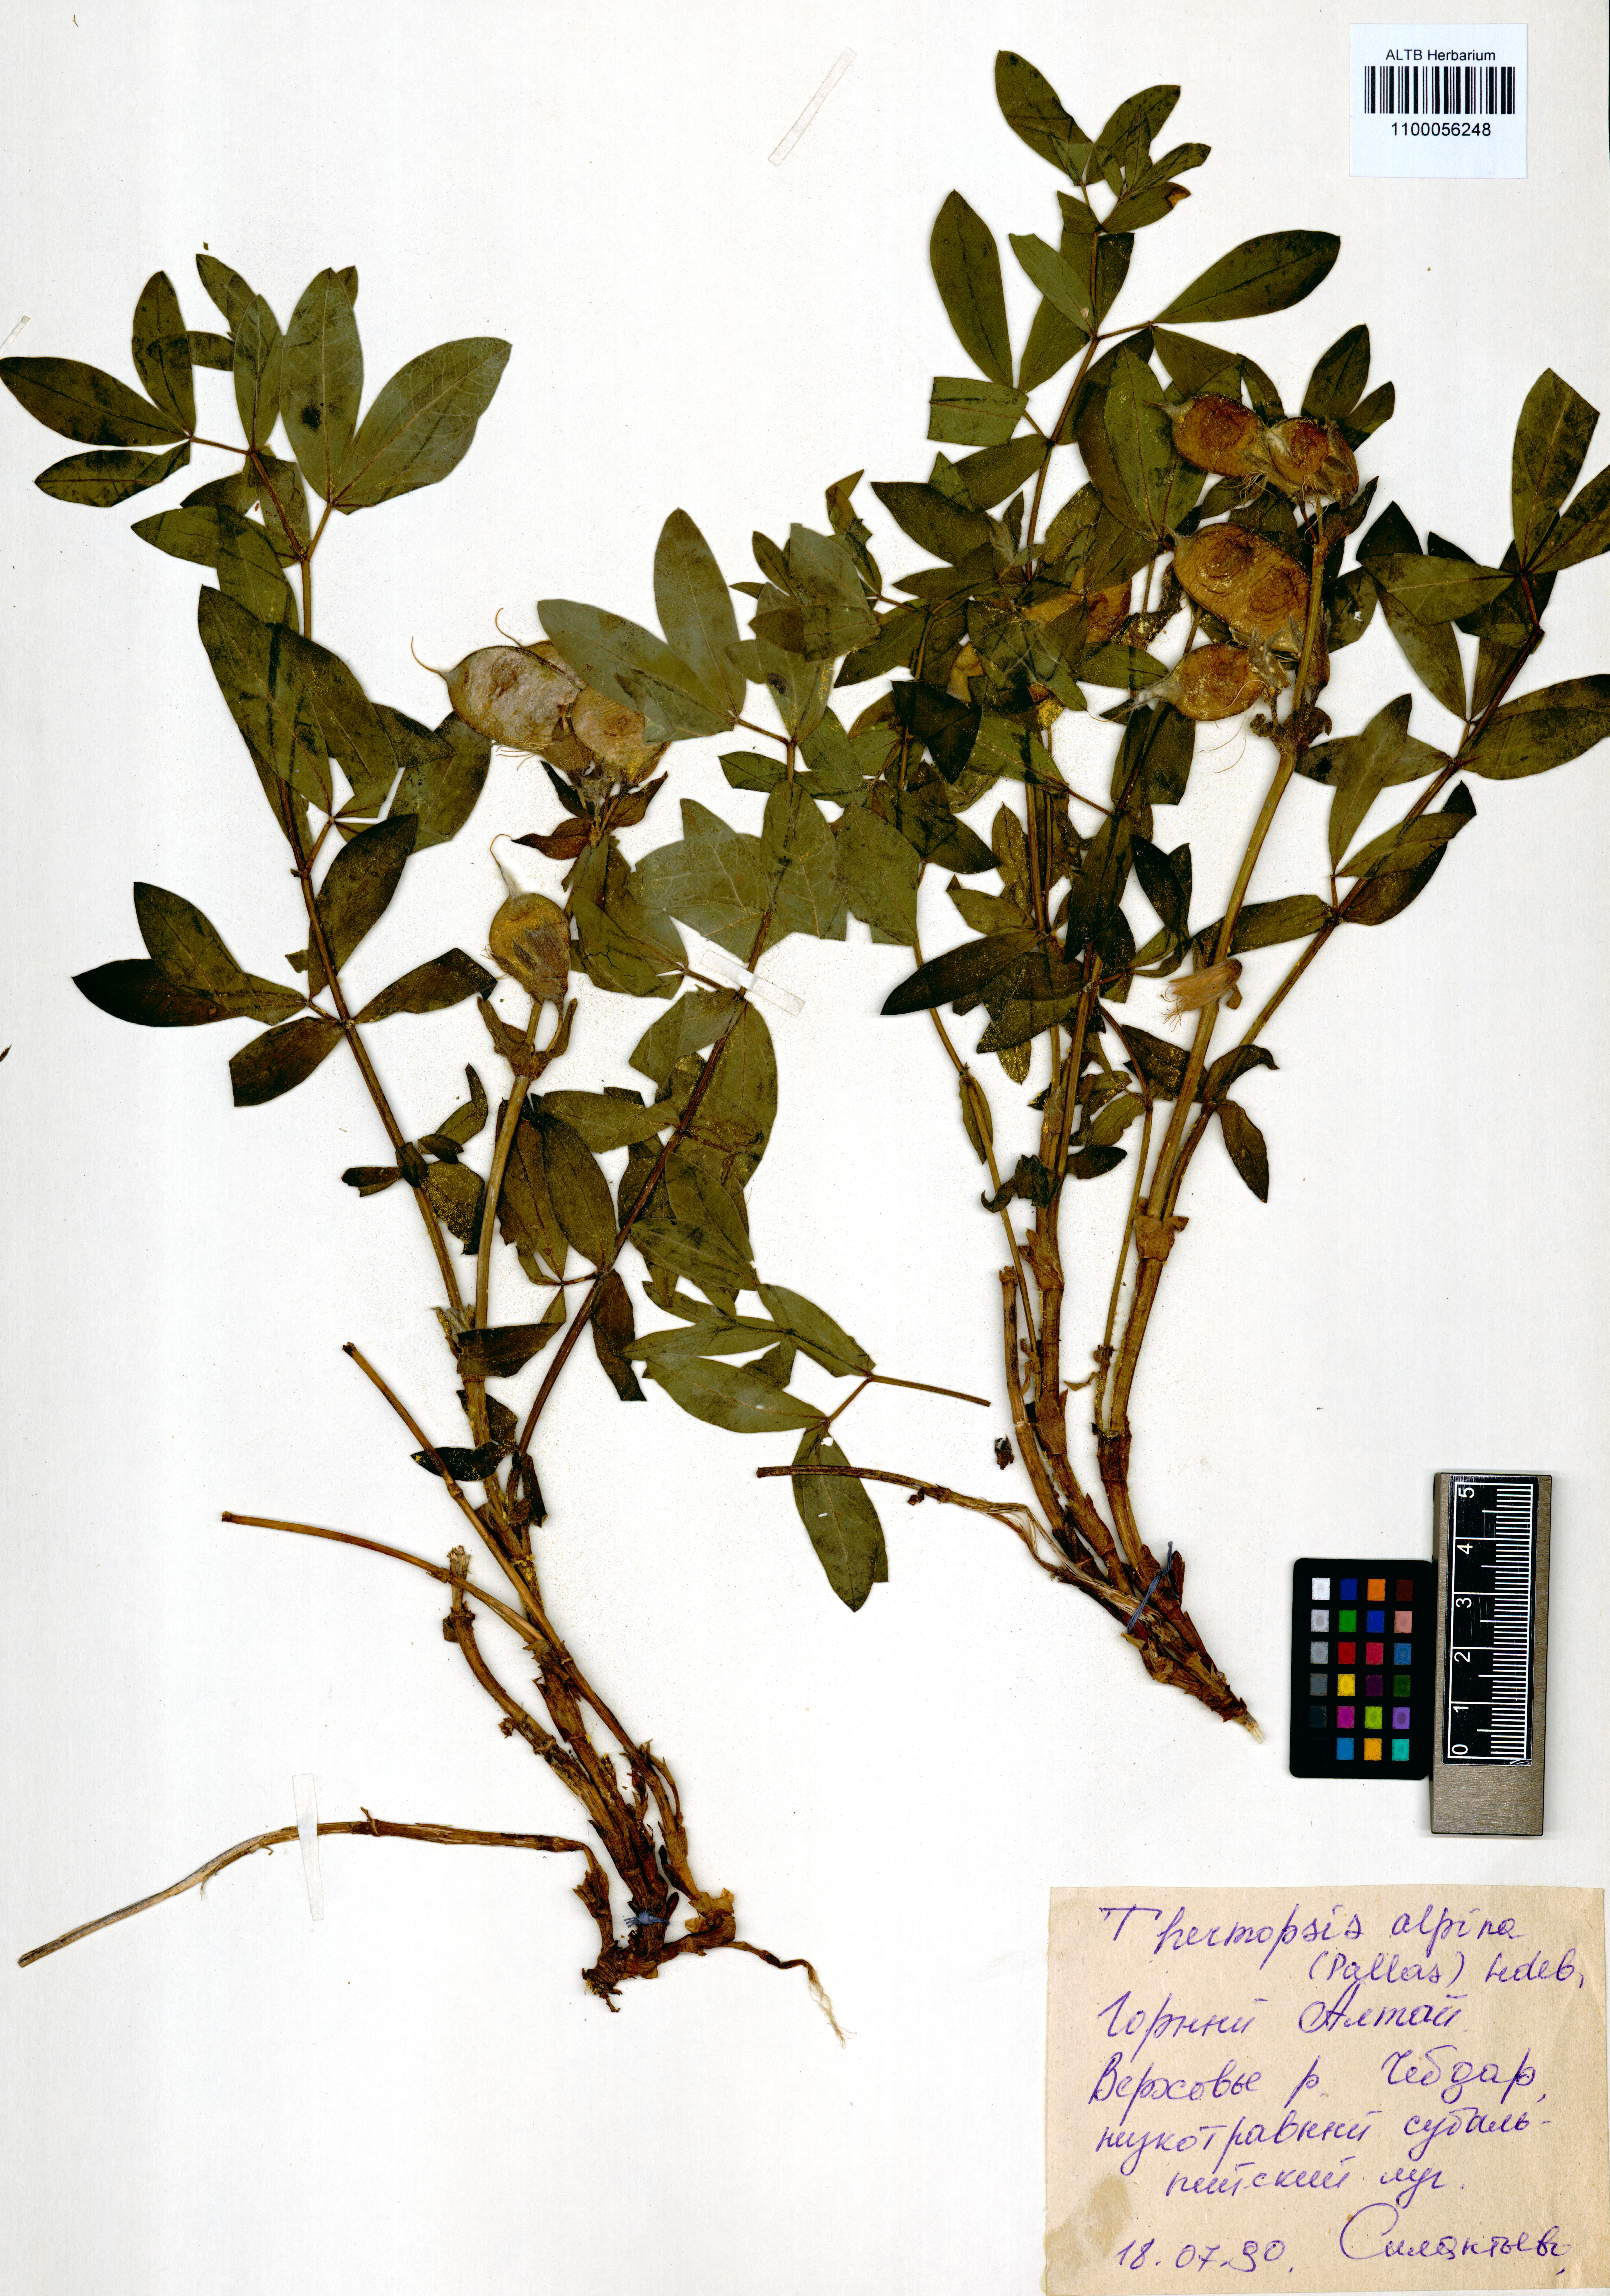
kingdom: Plantae
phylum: Tracheophyta
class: Magnoliopsida
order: Fabales
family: Fabaceae
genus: Thermopsis
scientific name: Thermopsis alpina
